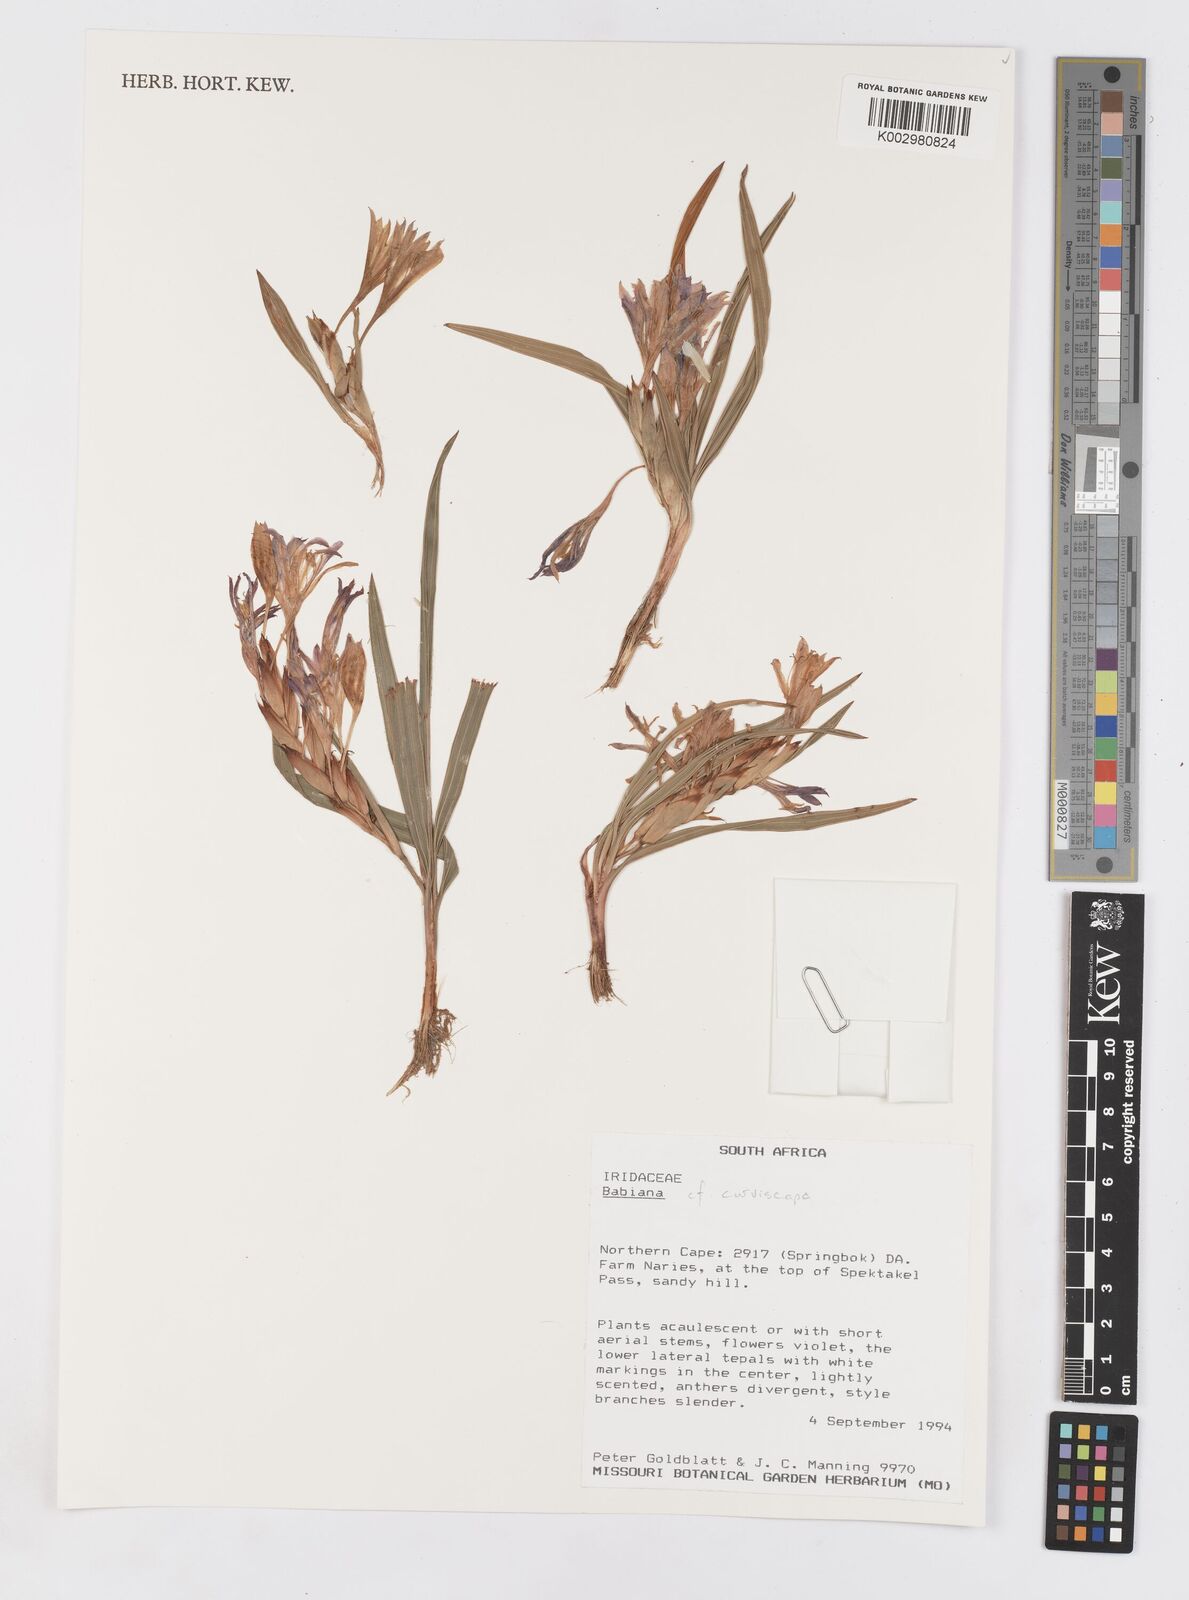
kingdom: Plantae
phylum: Tracheophyta
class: Liliopsida
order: Asparagales
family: Iridaceae
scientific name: Iridaceae
